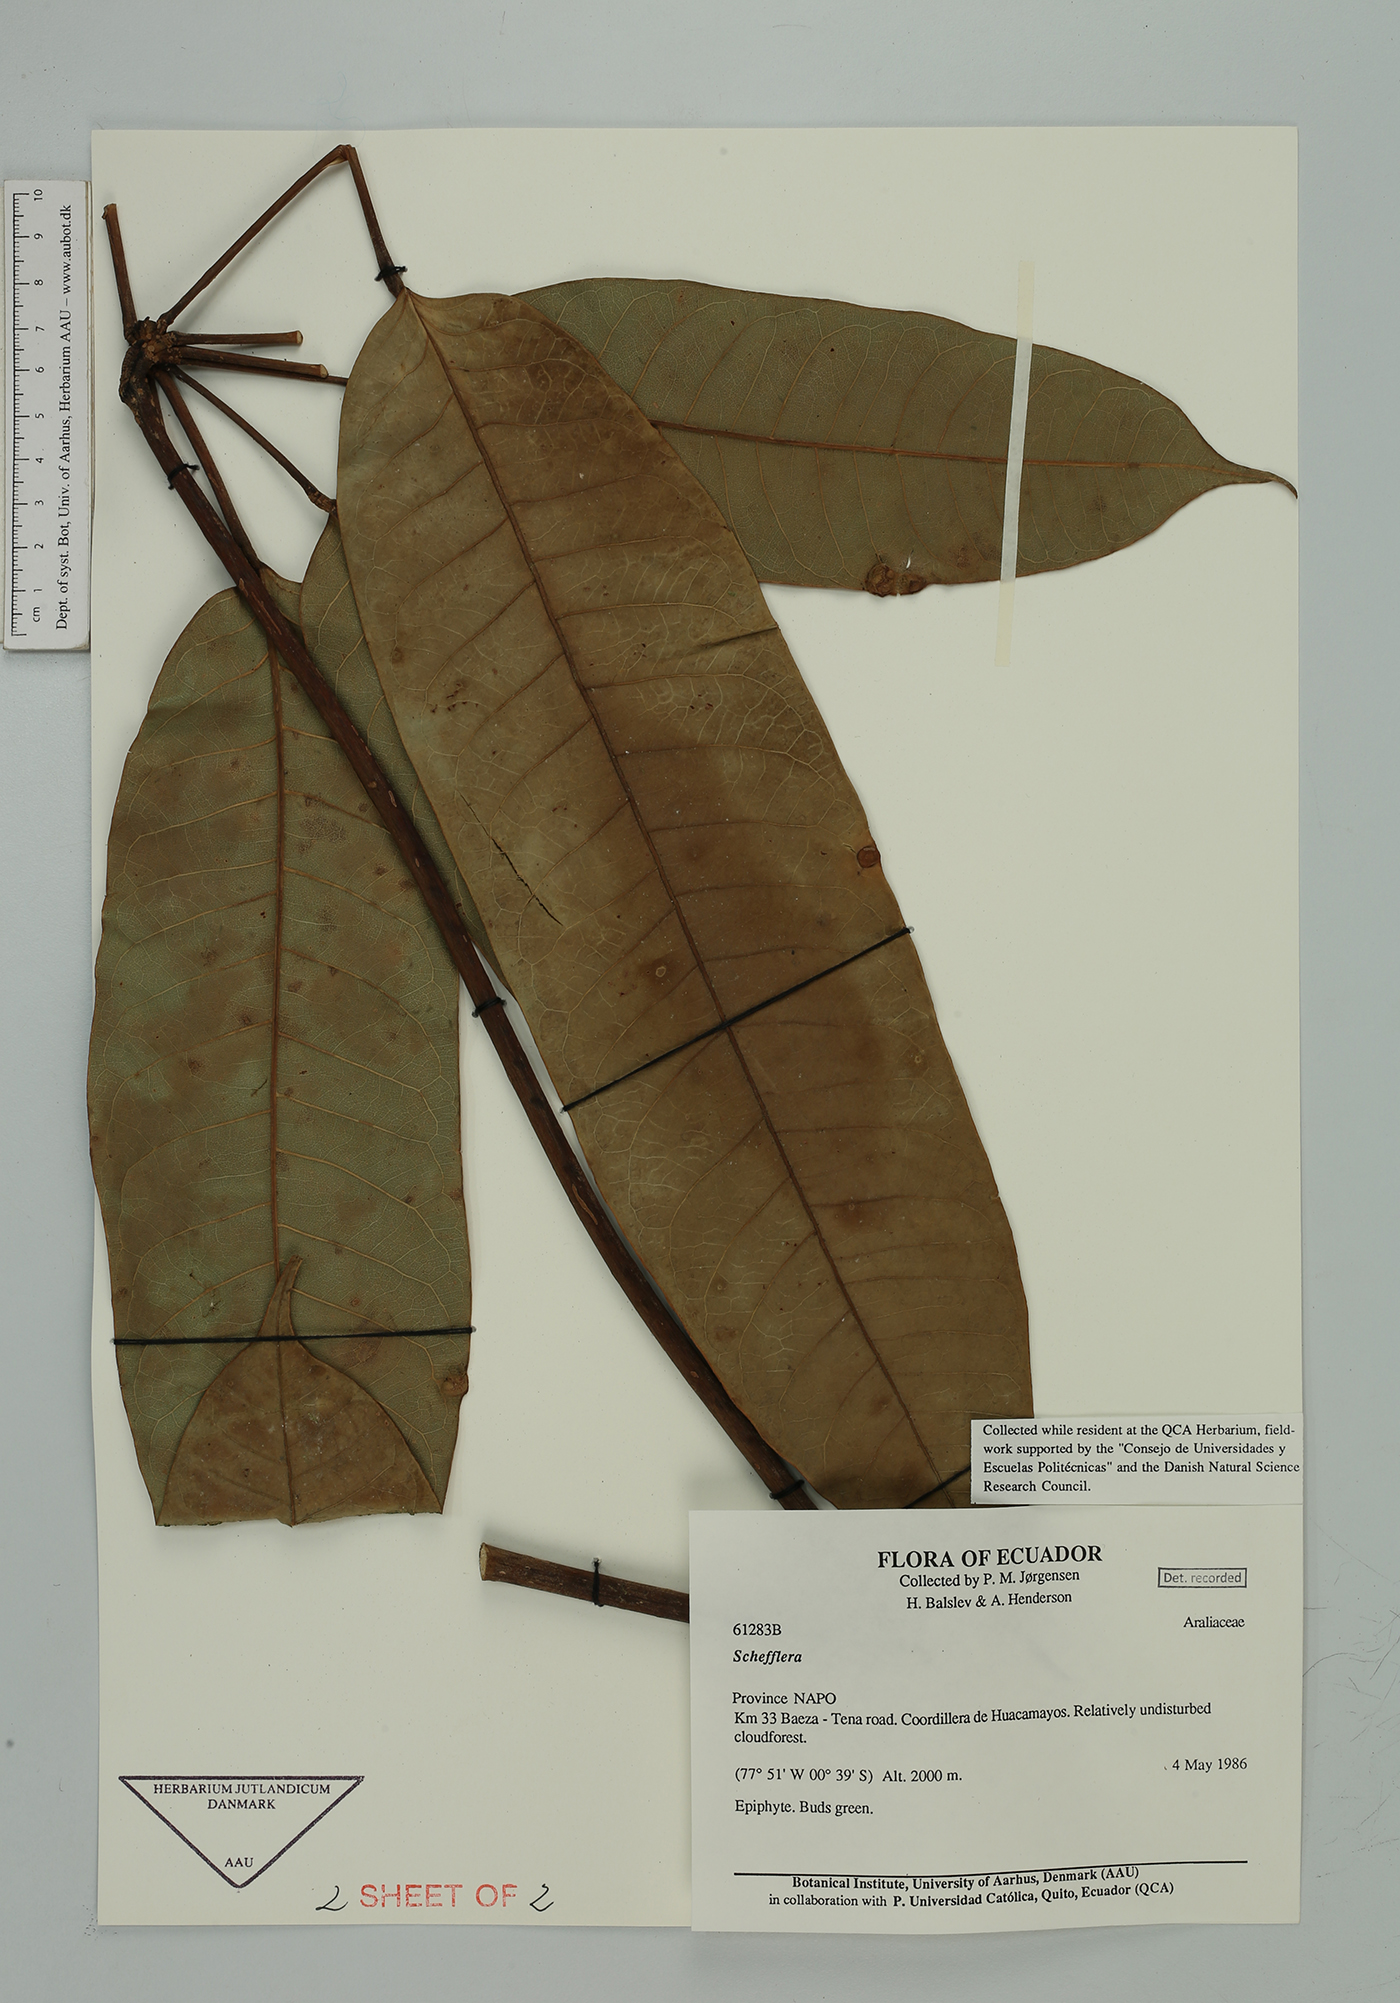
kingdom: Plantae
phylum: Tracheophyta
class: Magnoliopsida
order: Apiales
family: Araliaceae
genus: Sciodaphyllum
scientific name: Sciodaphyllum
